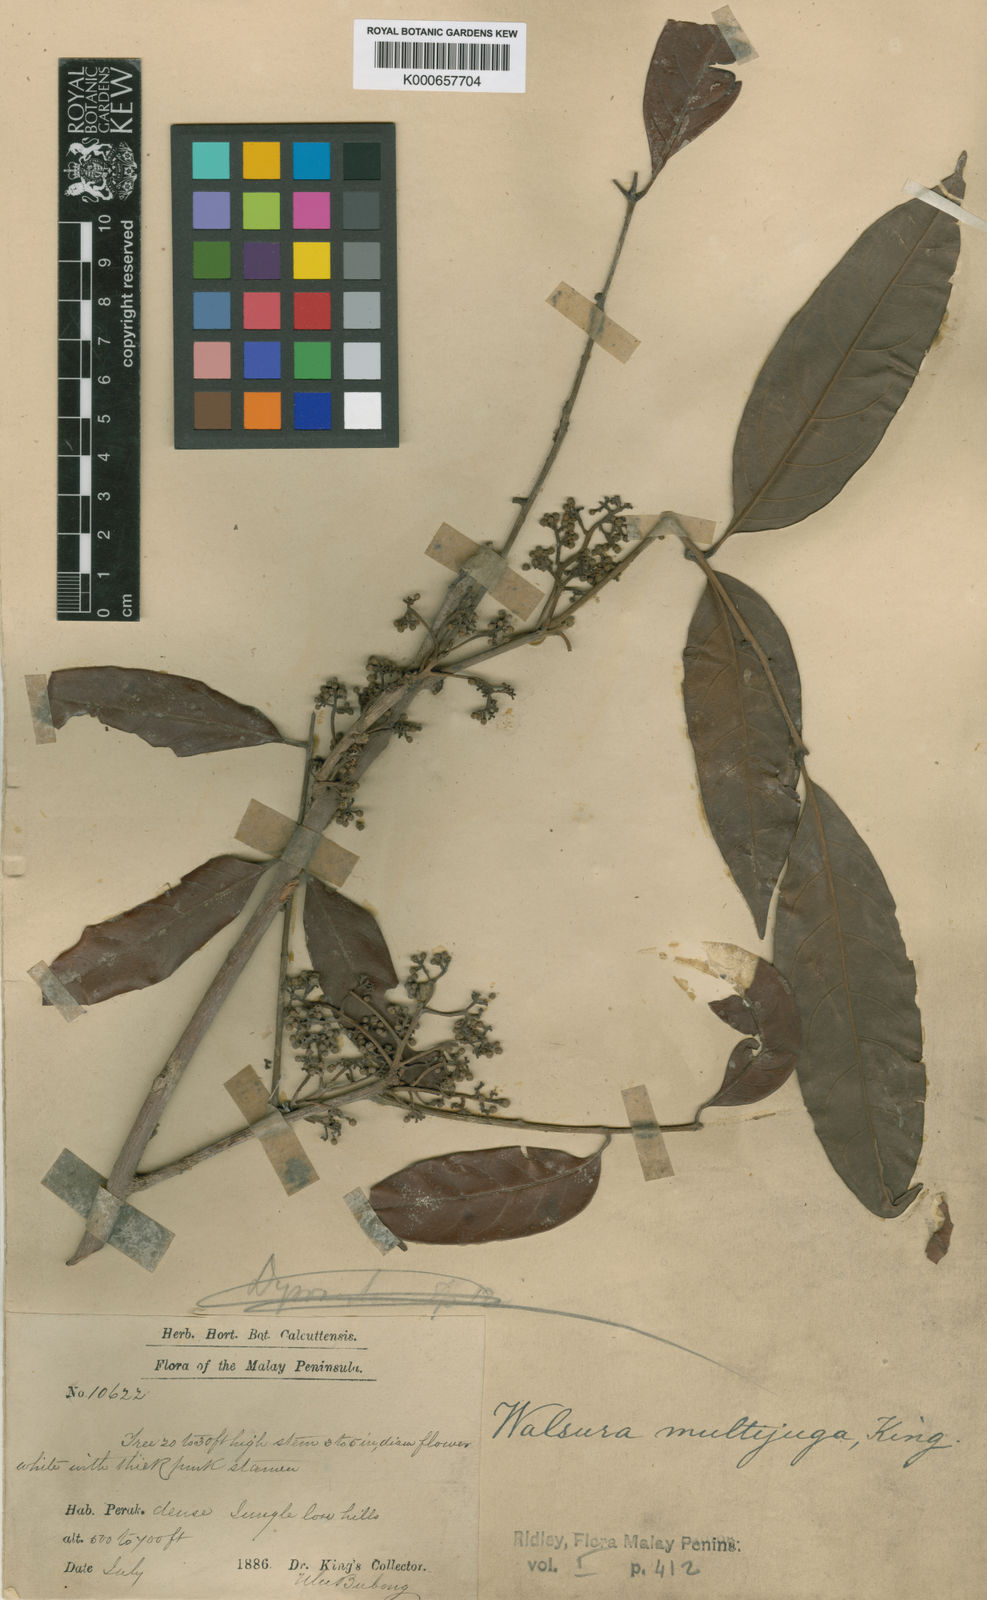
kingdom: Plantae
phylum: Tracheophyta
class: Magnoliopsida
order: Sapindales
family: Meliaceae
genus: Walsura
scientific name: Walsura
